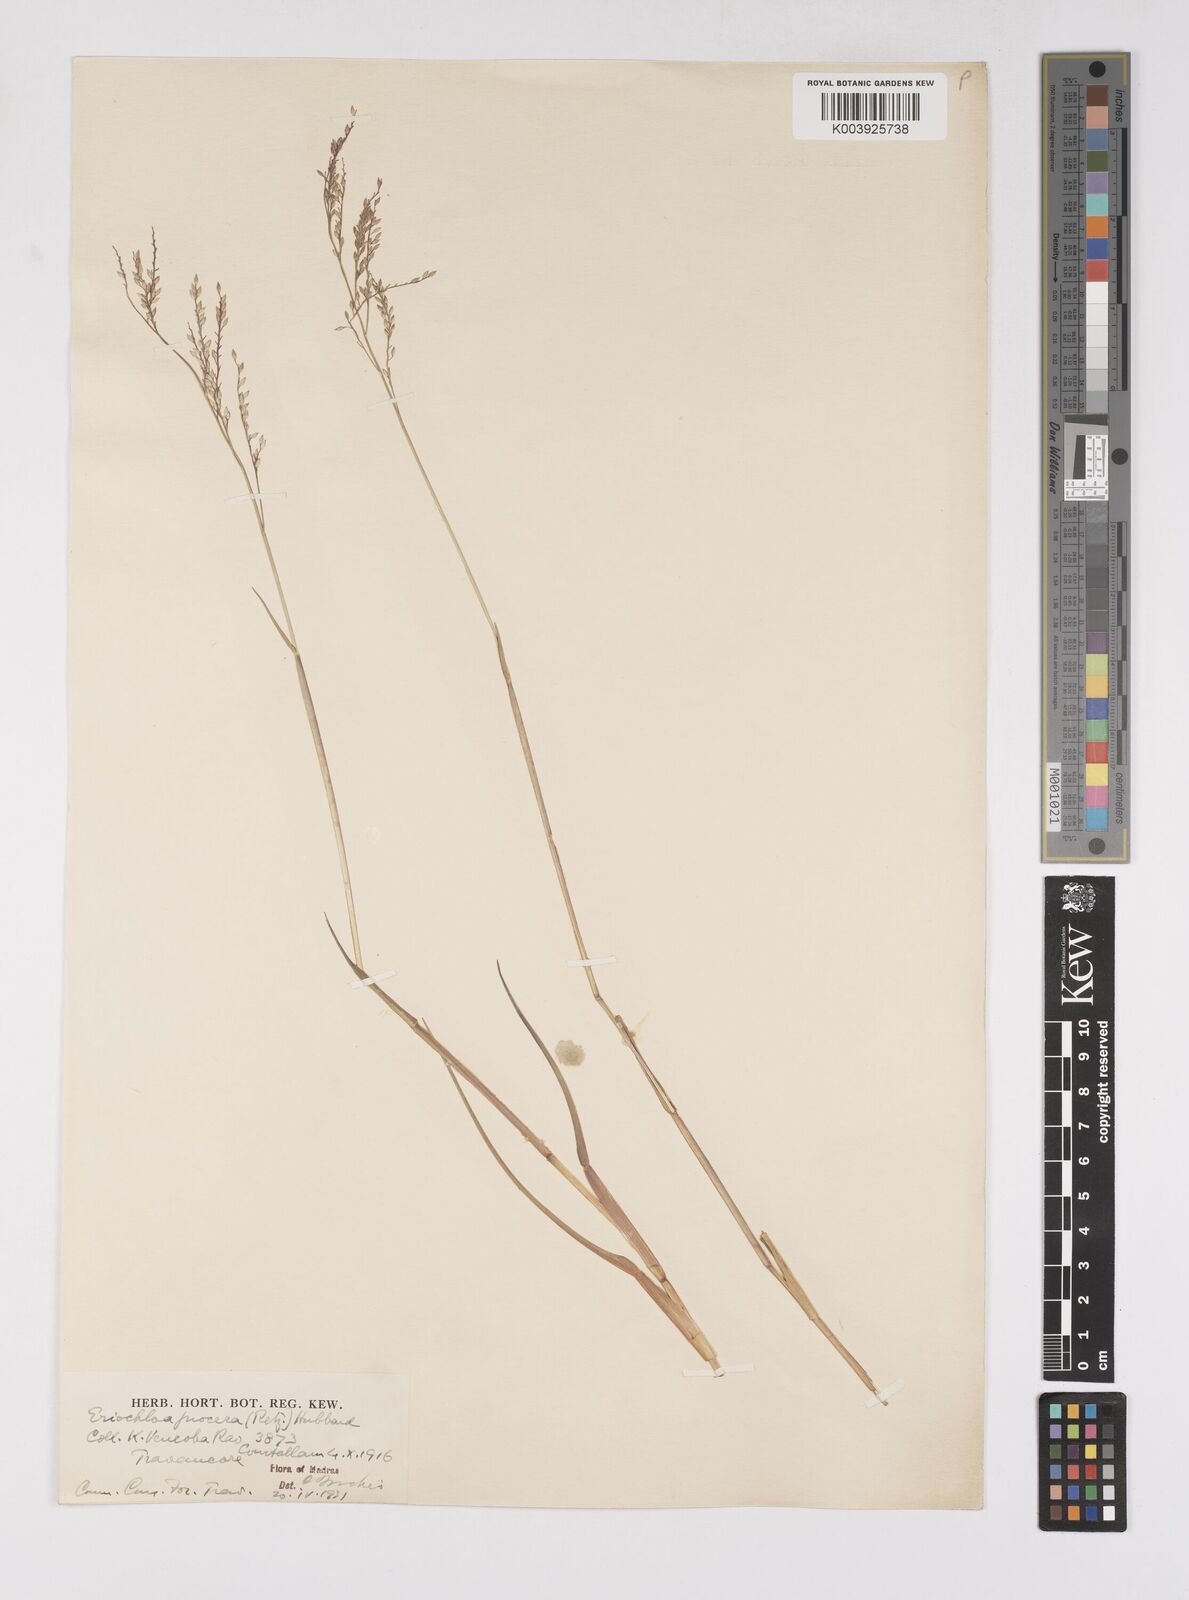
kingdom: Plantae
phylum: Tracheophyta
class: Liliopsida
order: Poales
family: Poaceae
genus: Eriochloa
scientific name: Eriochloa procera
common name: Spring grass
